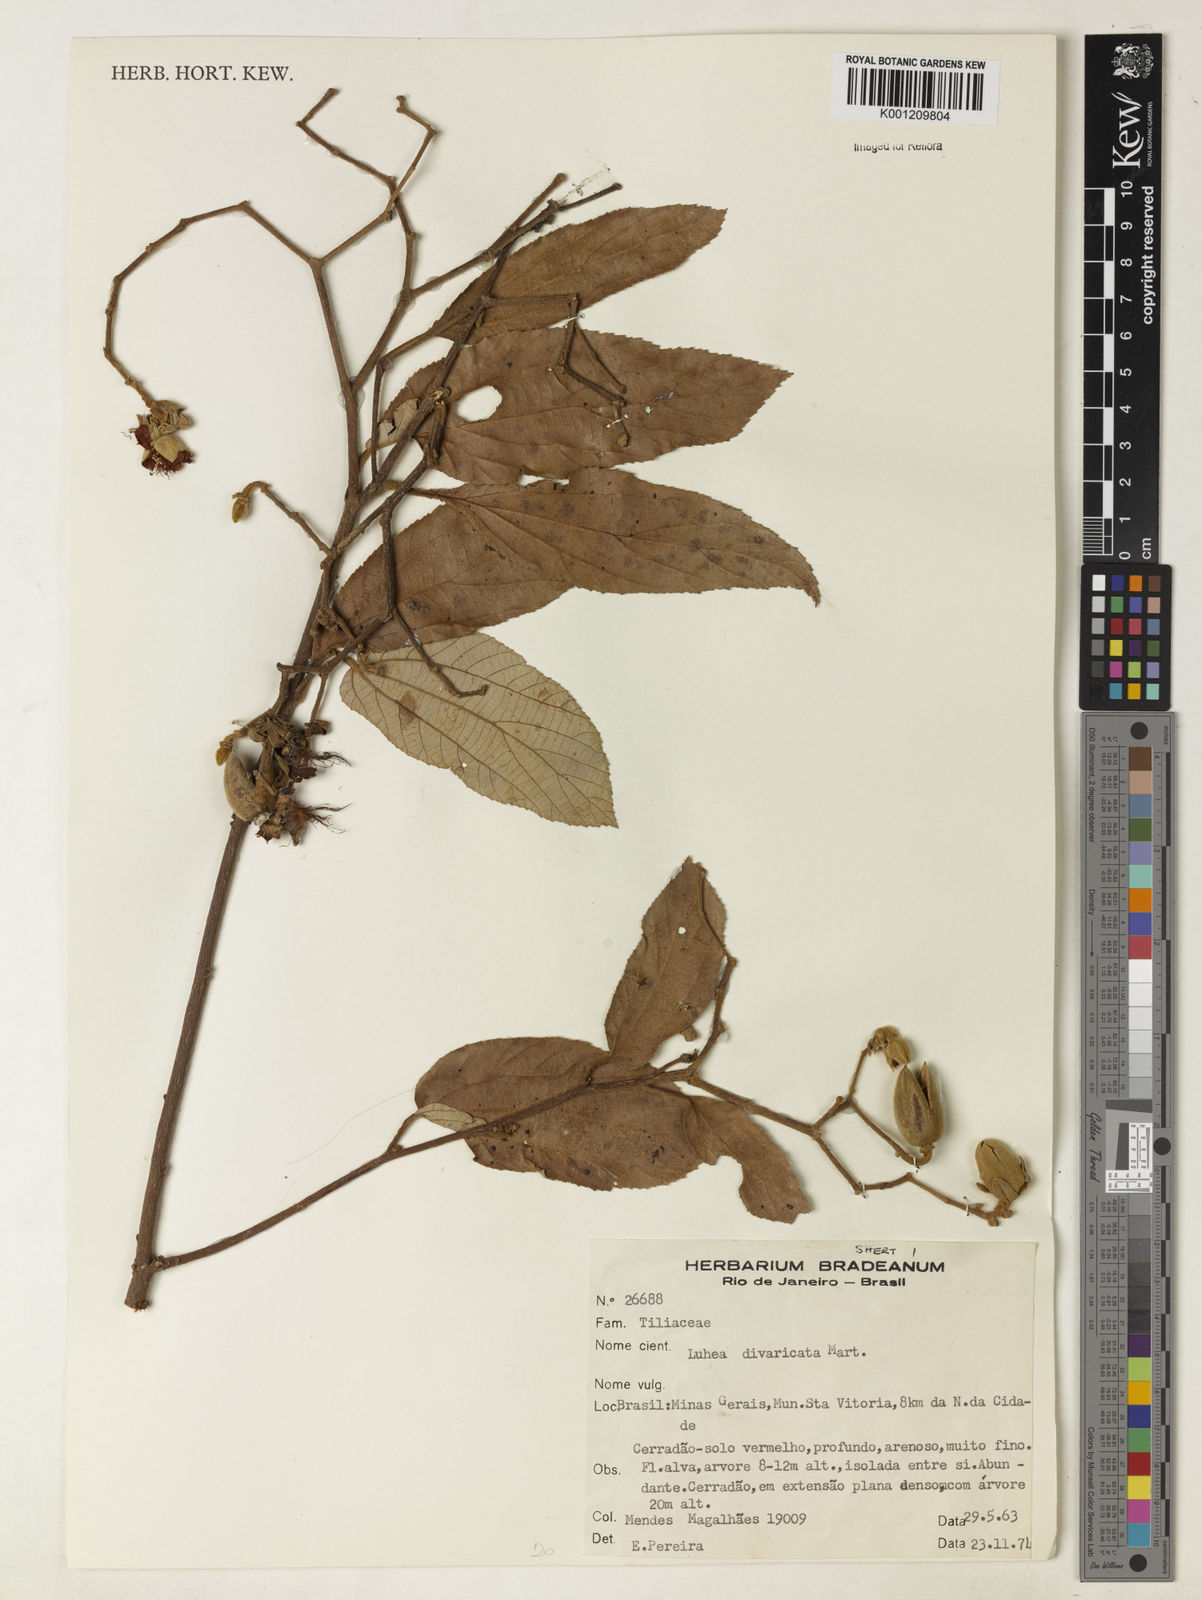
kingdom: Plantae
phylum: Tracheophyta
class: Magnoliopsida
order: Malvales
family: Malvaceae
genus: Luehea
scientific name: Luehea divaricata
